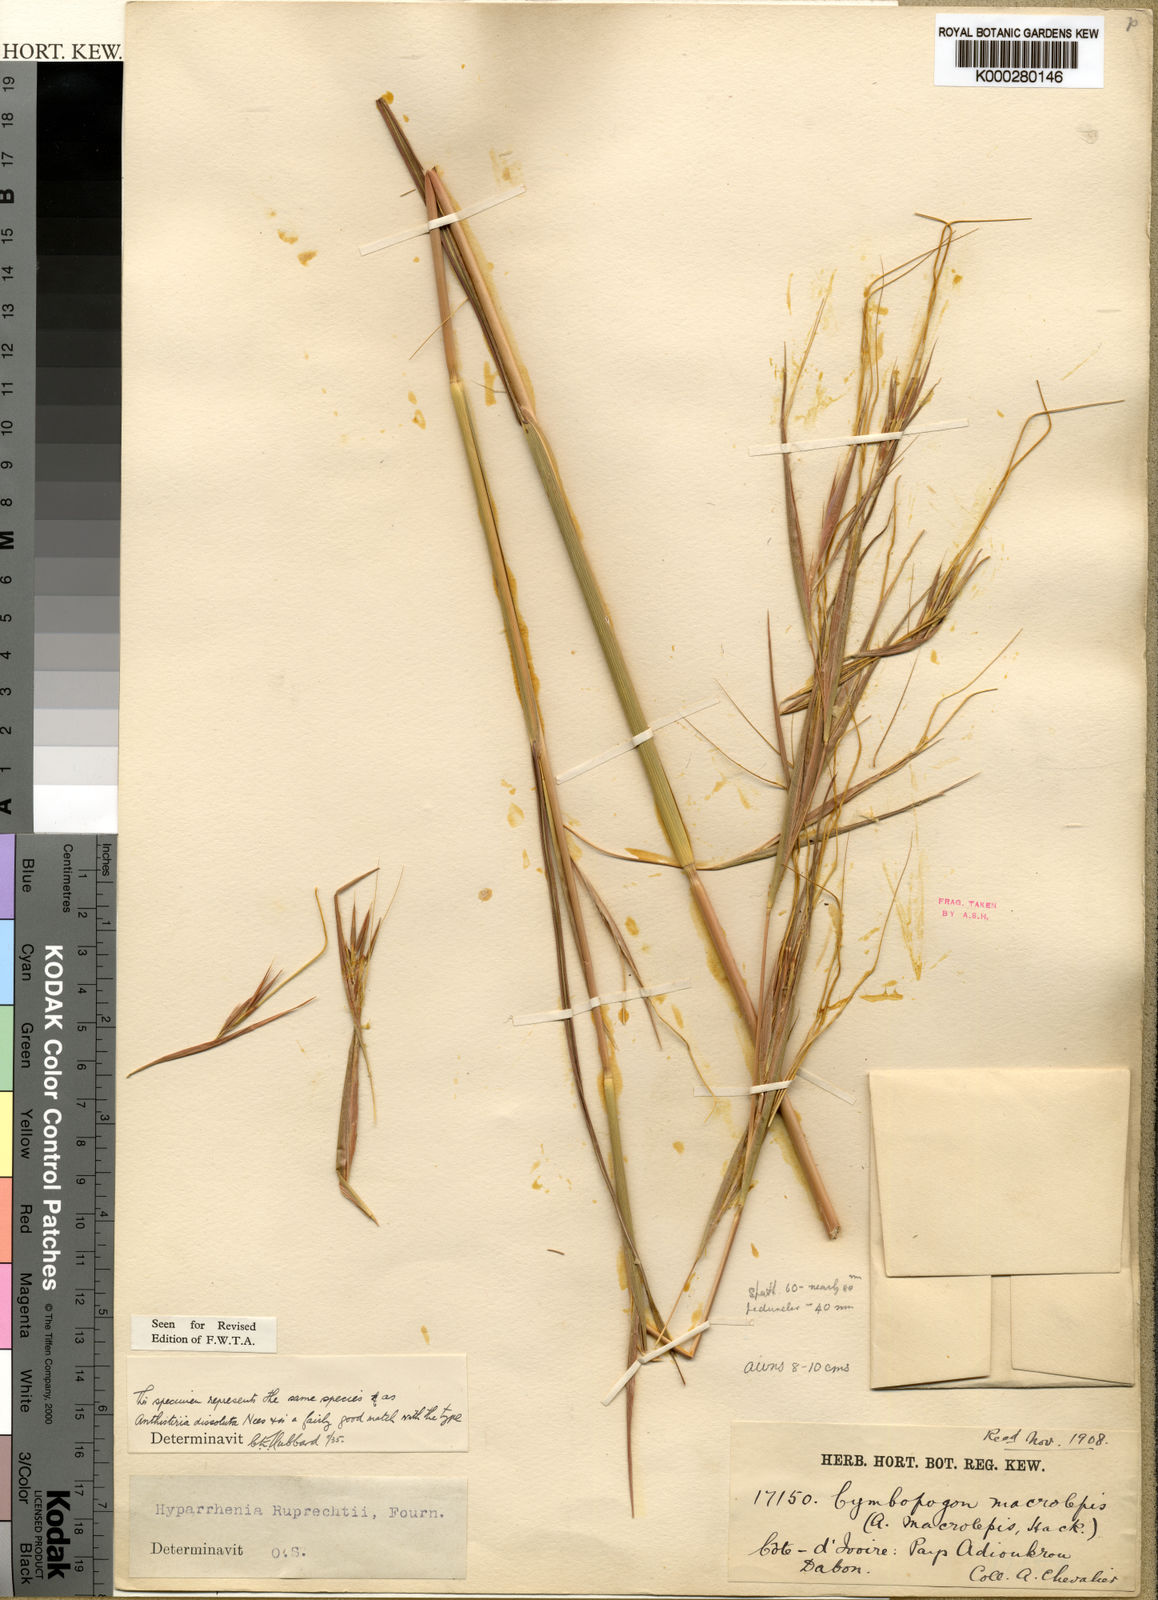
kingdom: Plantae
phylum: Tracheophyta
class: Liliopsida
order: Poales
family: Poaceae
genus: Hyperthelia
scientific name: Hyperthelia dissoluta
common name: Yellow thatching grass
